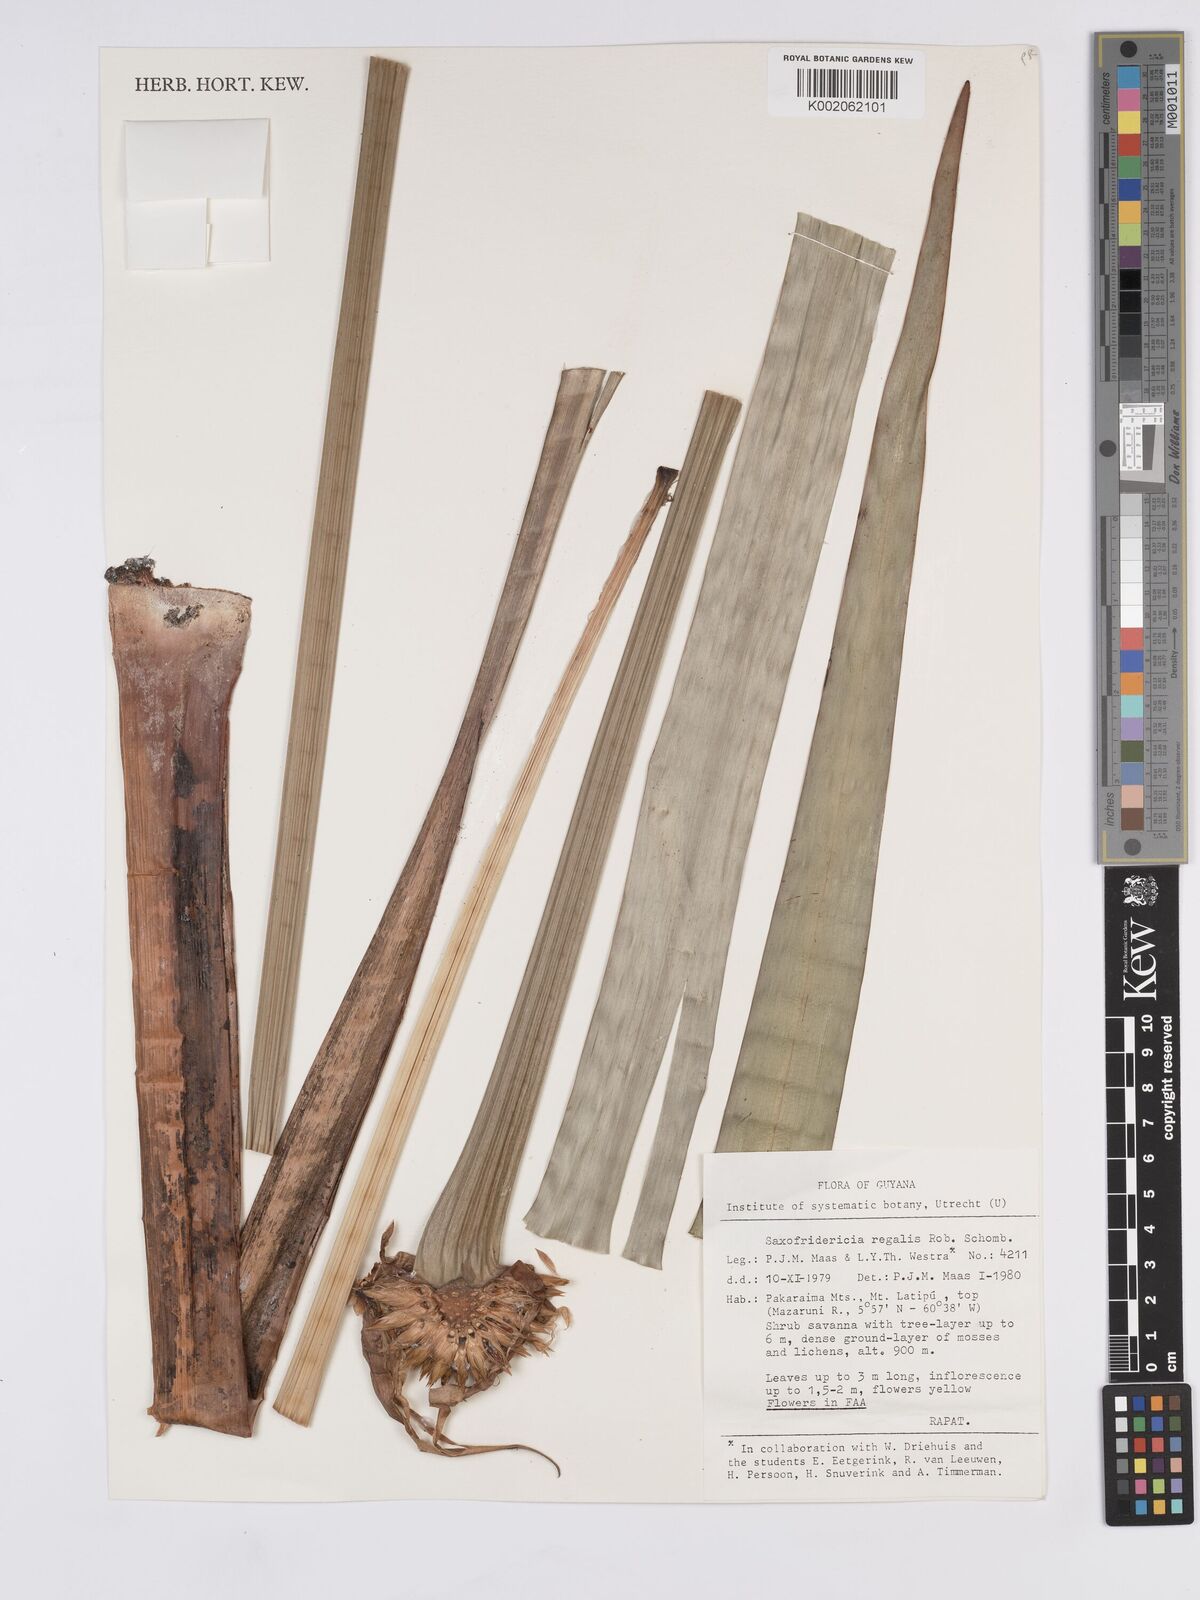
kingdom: Plantae
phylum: Tracheophyta
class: Liliopsida
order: Poales
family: Rapateaceae
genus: Saxofridericia
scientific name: Saxofridericia regalis
